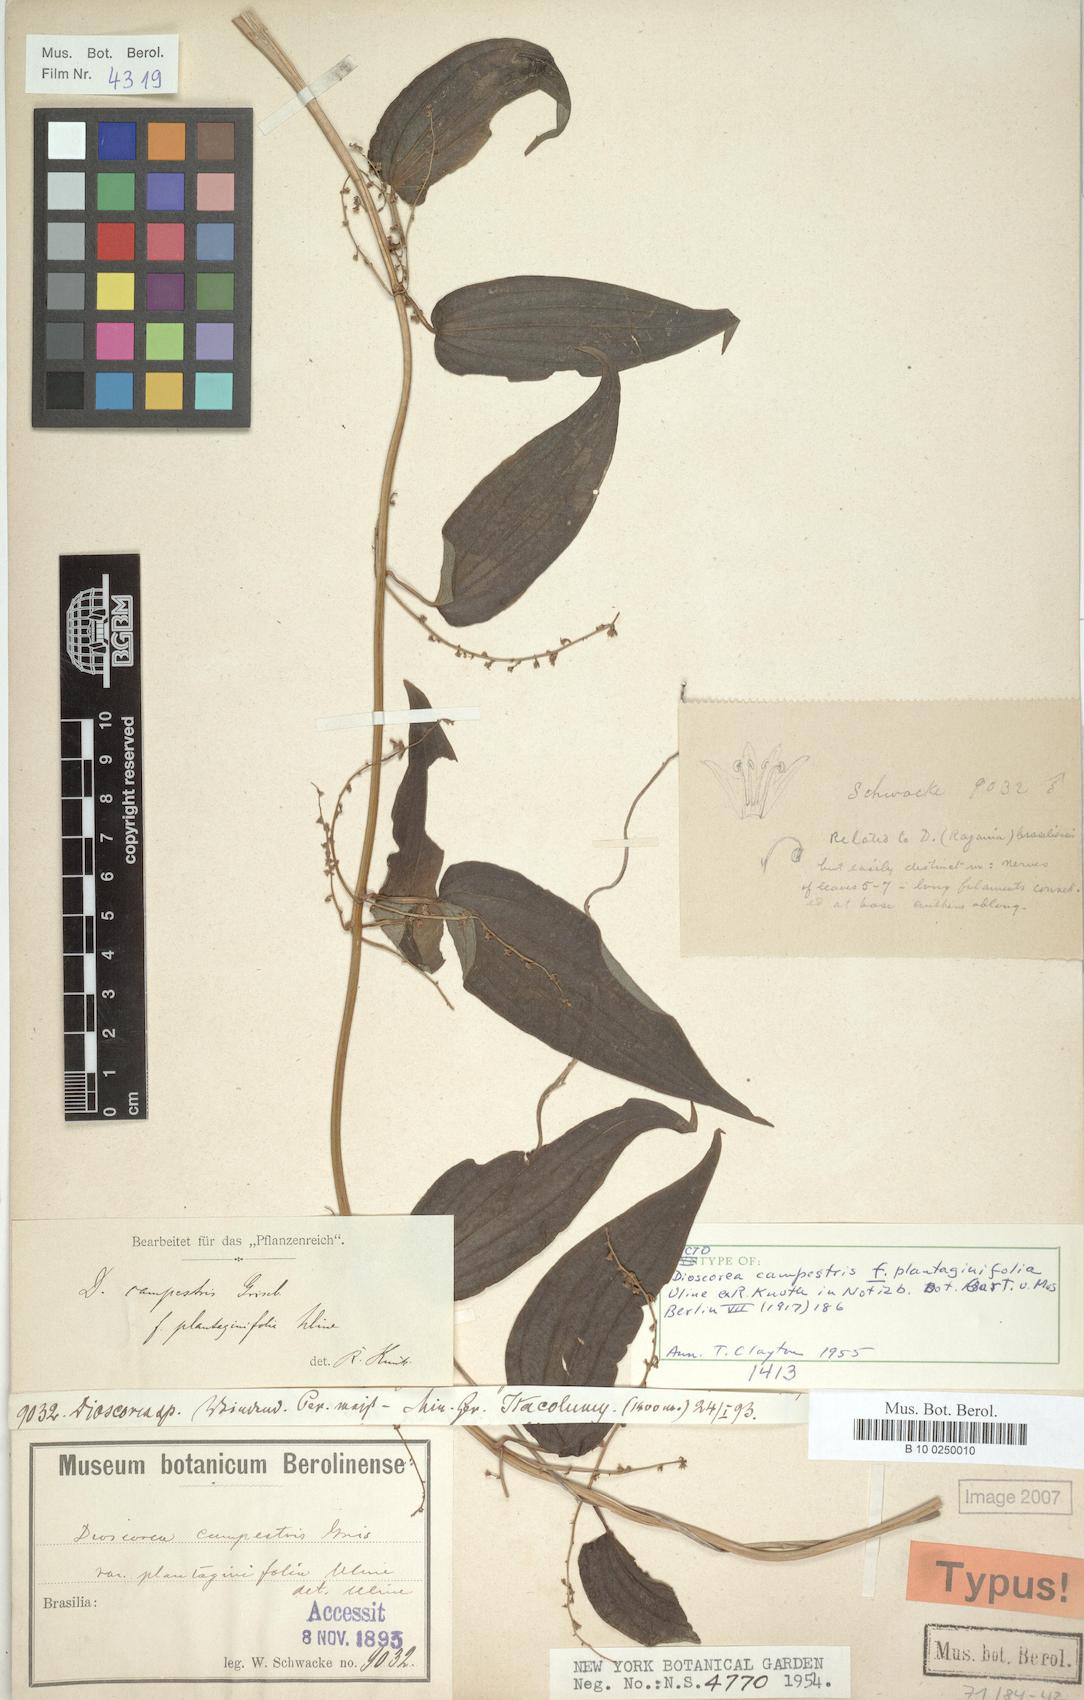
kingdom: Plantae
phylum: Tracheophyta
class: Liliopsida
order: Dioscoreales
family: Dioscoreaceae
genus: Dioscorea
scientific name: Dioscorea campestris
